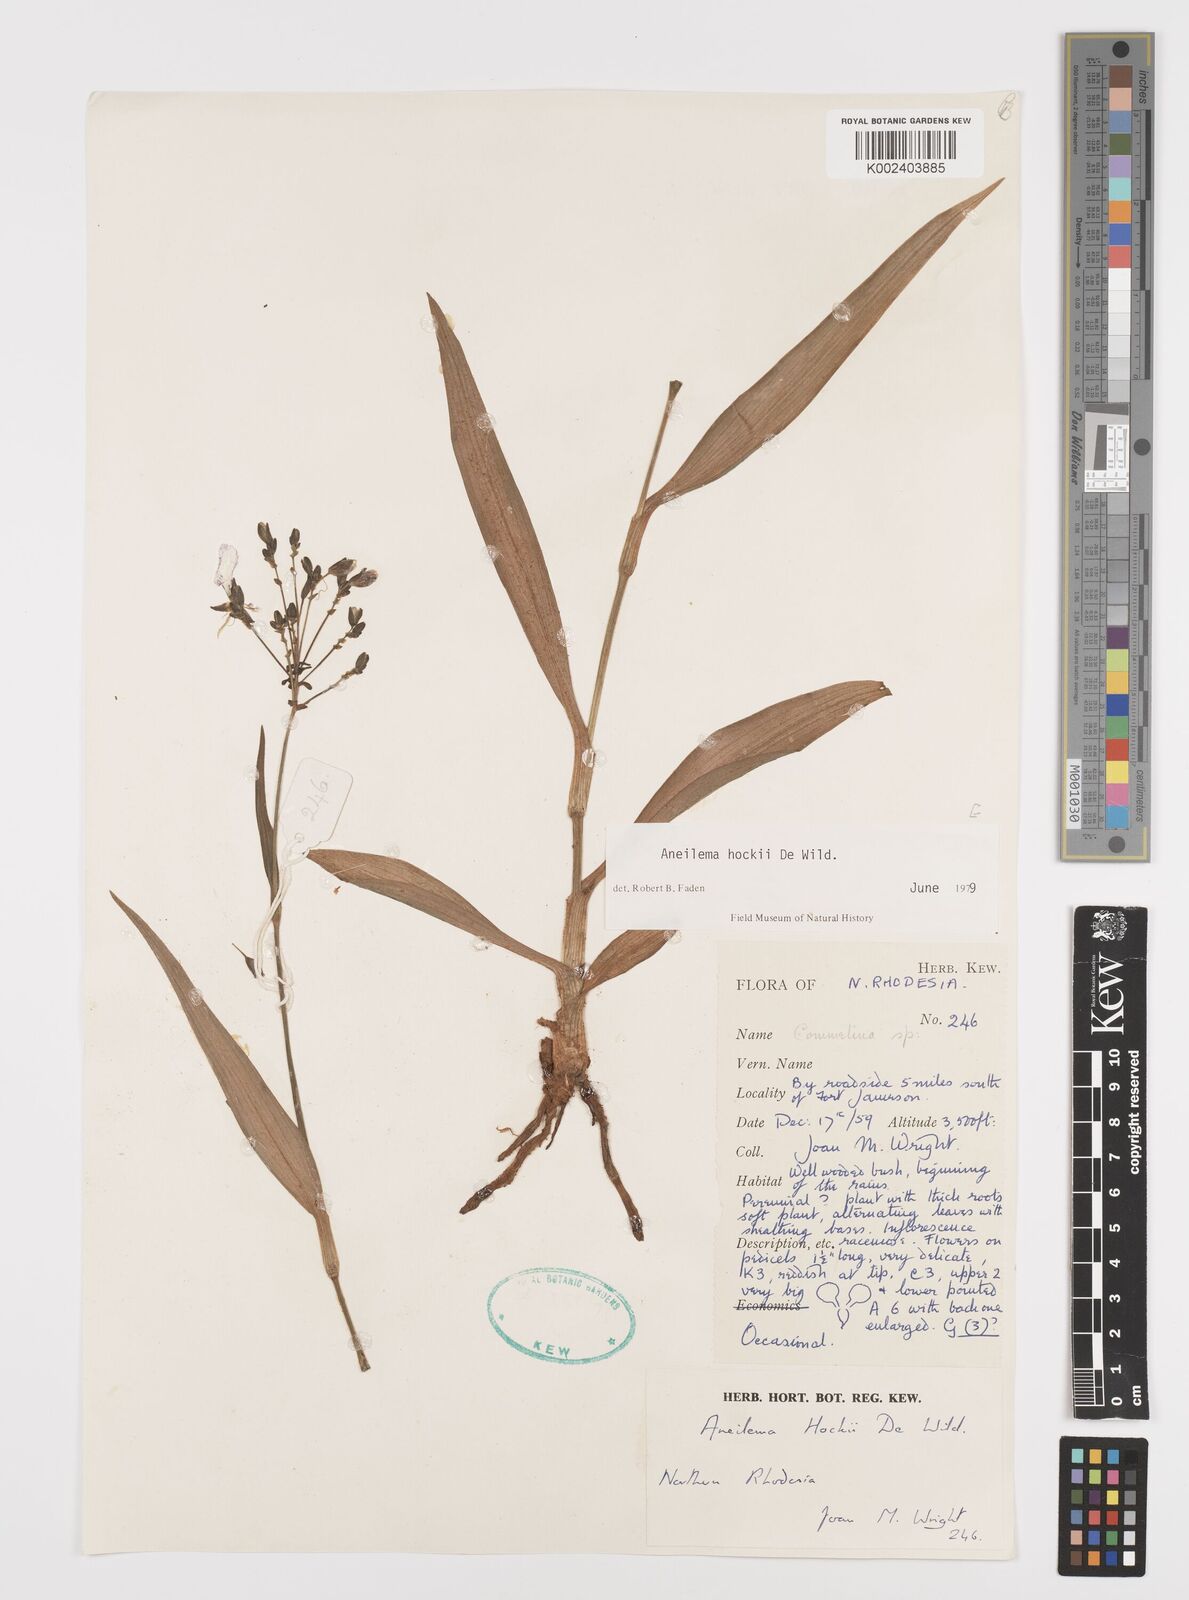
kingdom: Plantae
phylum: Tracheophyta
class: Liliopsida
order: Commelinales
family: Commelinaceae
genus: Aneilema
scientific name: Aneilema hockii
